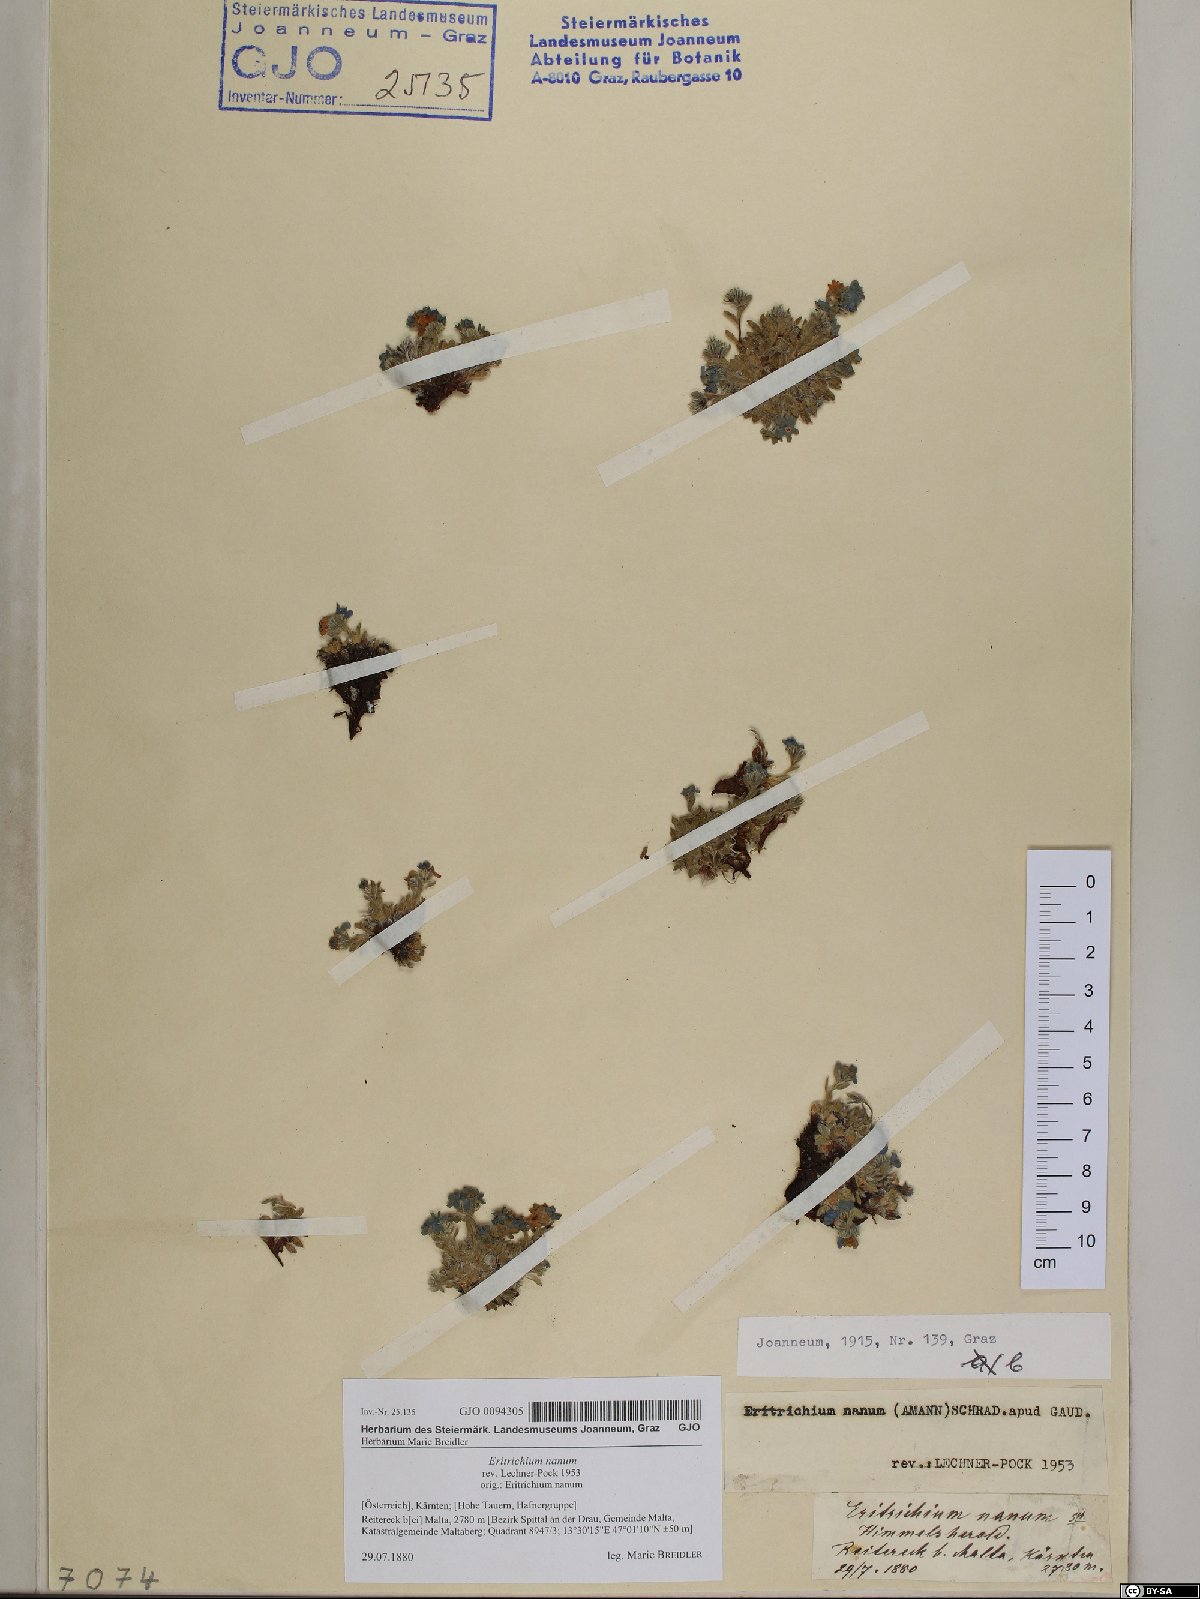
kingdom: Plantae
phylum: Tracheophyta
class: Magnoliopsida
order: Boraginales
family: Boraginaceae
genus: Eritrichium
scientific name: Eritrichium nanum
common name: King-of-the-alps
